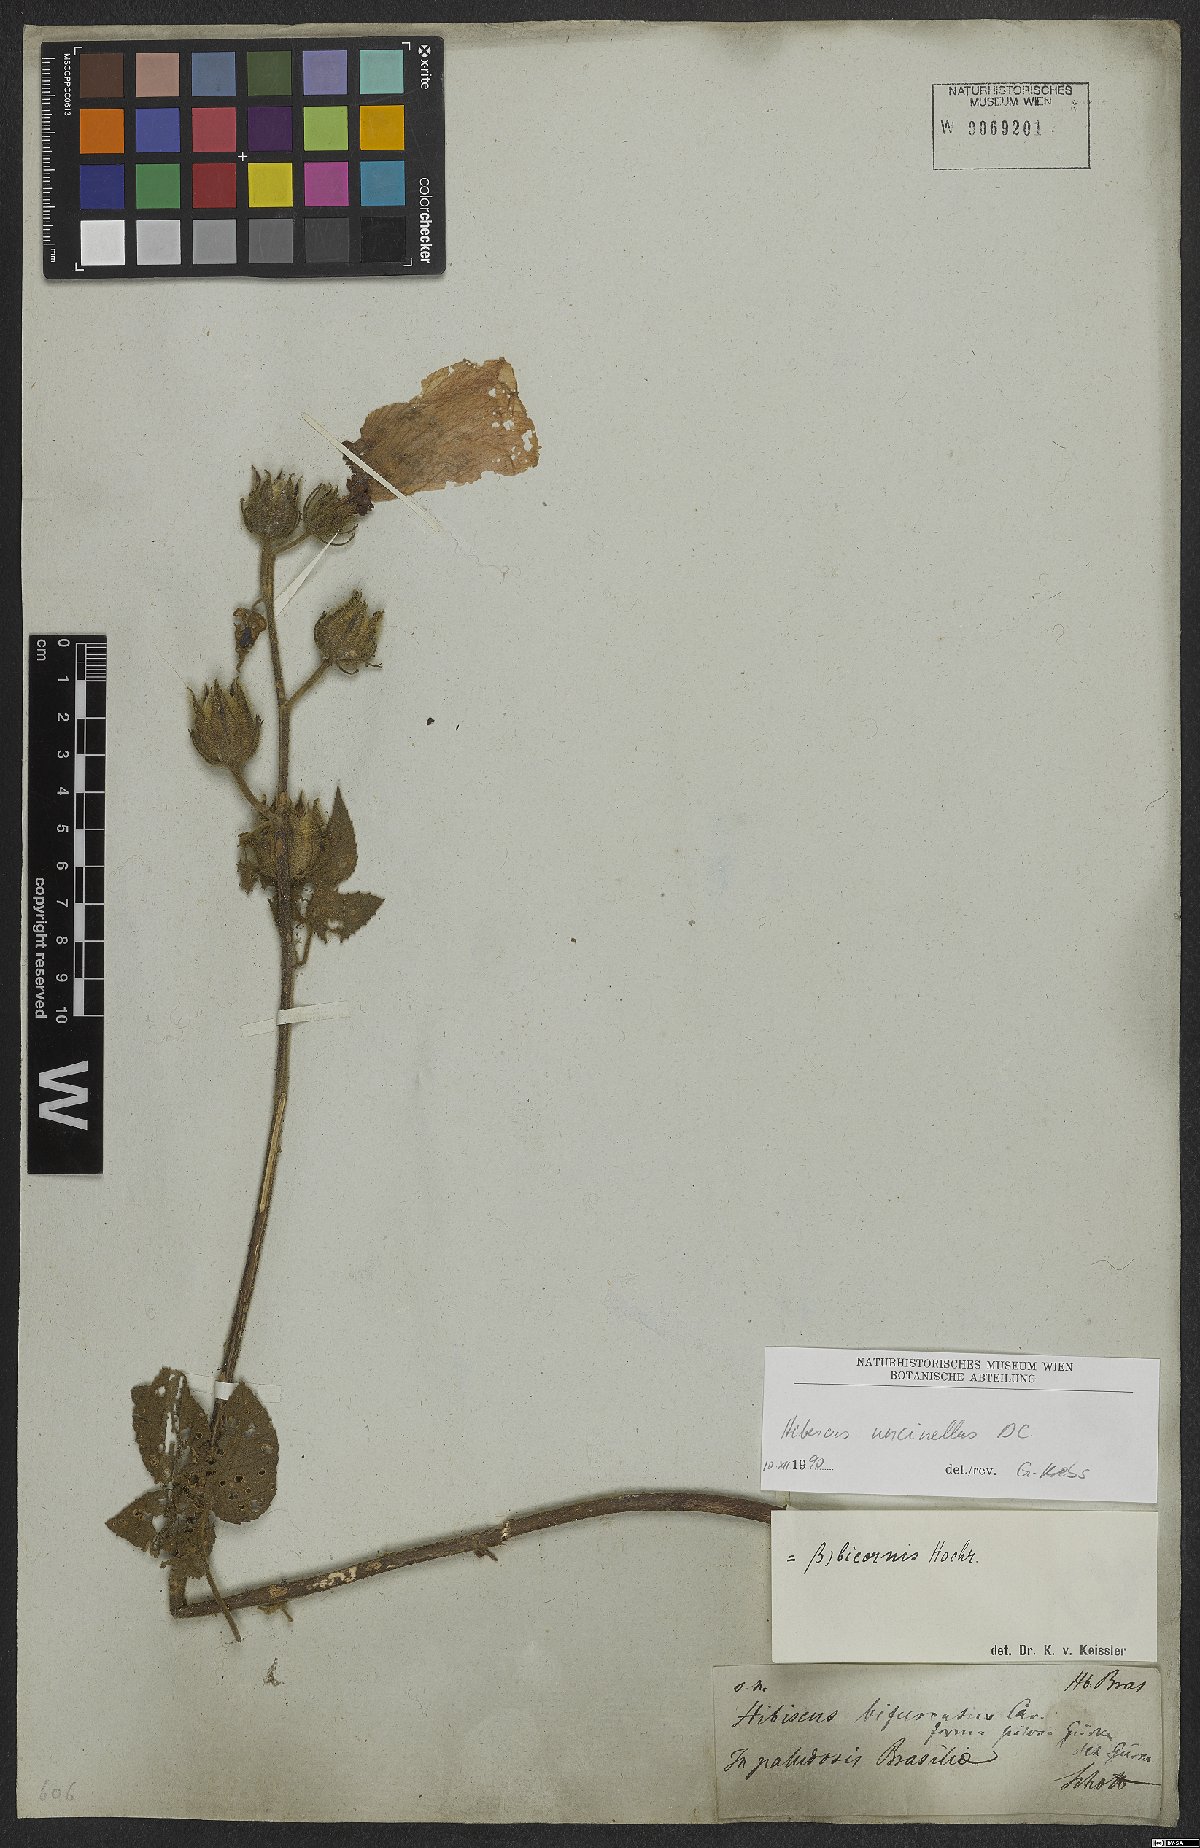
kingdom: Plantae
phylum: Tracheophyta
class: Magnoliopsida
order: Malvales
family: Malvaceae
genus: Hibiscus
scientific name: Hibiscus uncinellus
